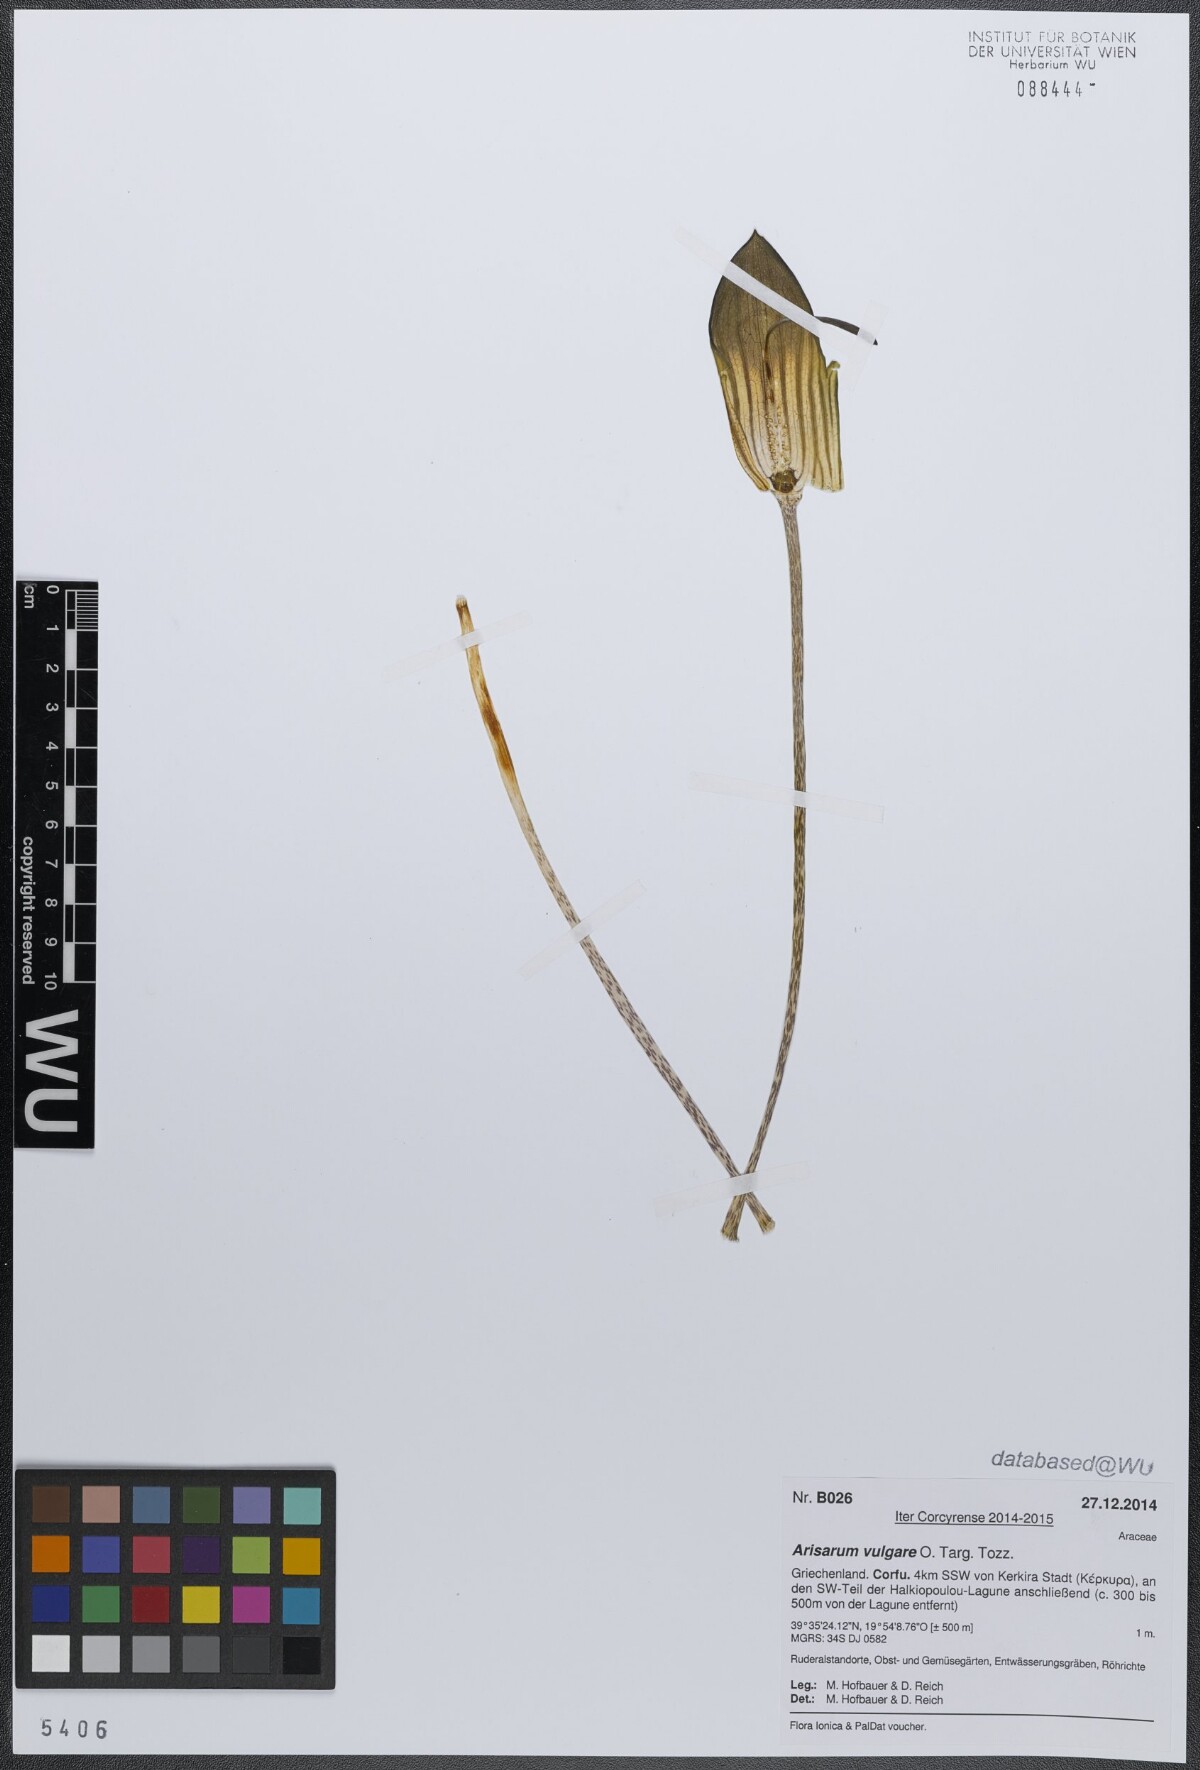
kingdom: Plantae
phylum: Tracheophyta
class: Liliopsida
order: Alismatales
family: Araceae
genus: Arisarum
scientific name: Arisarum vulgare
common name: Common arisarum
